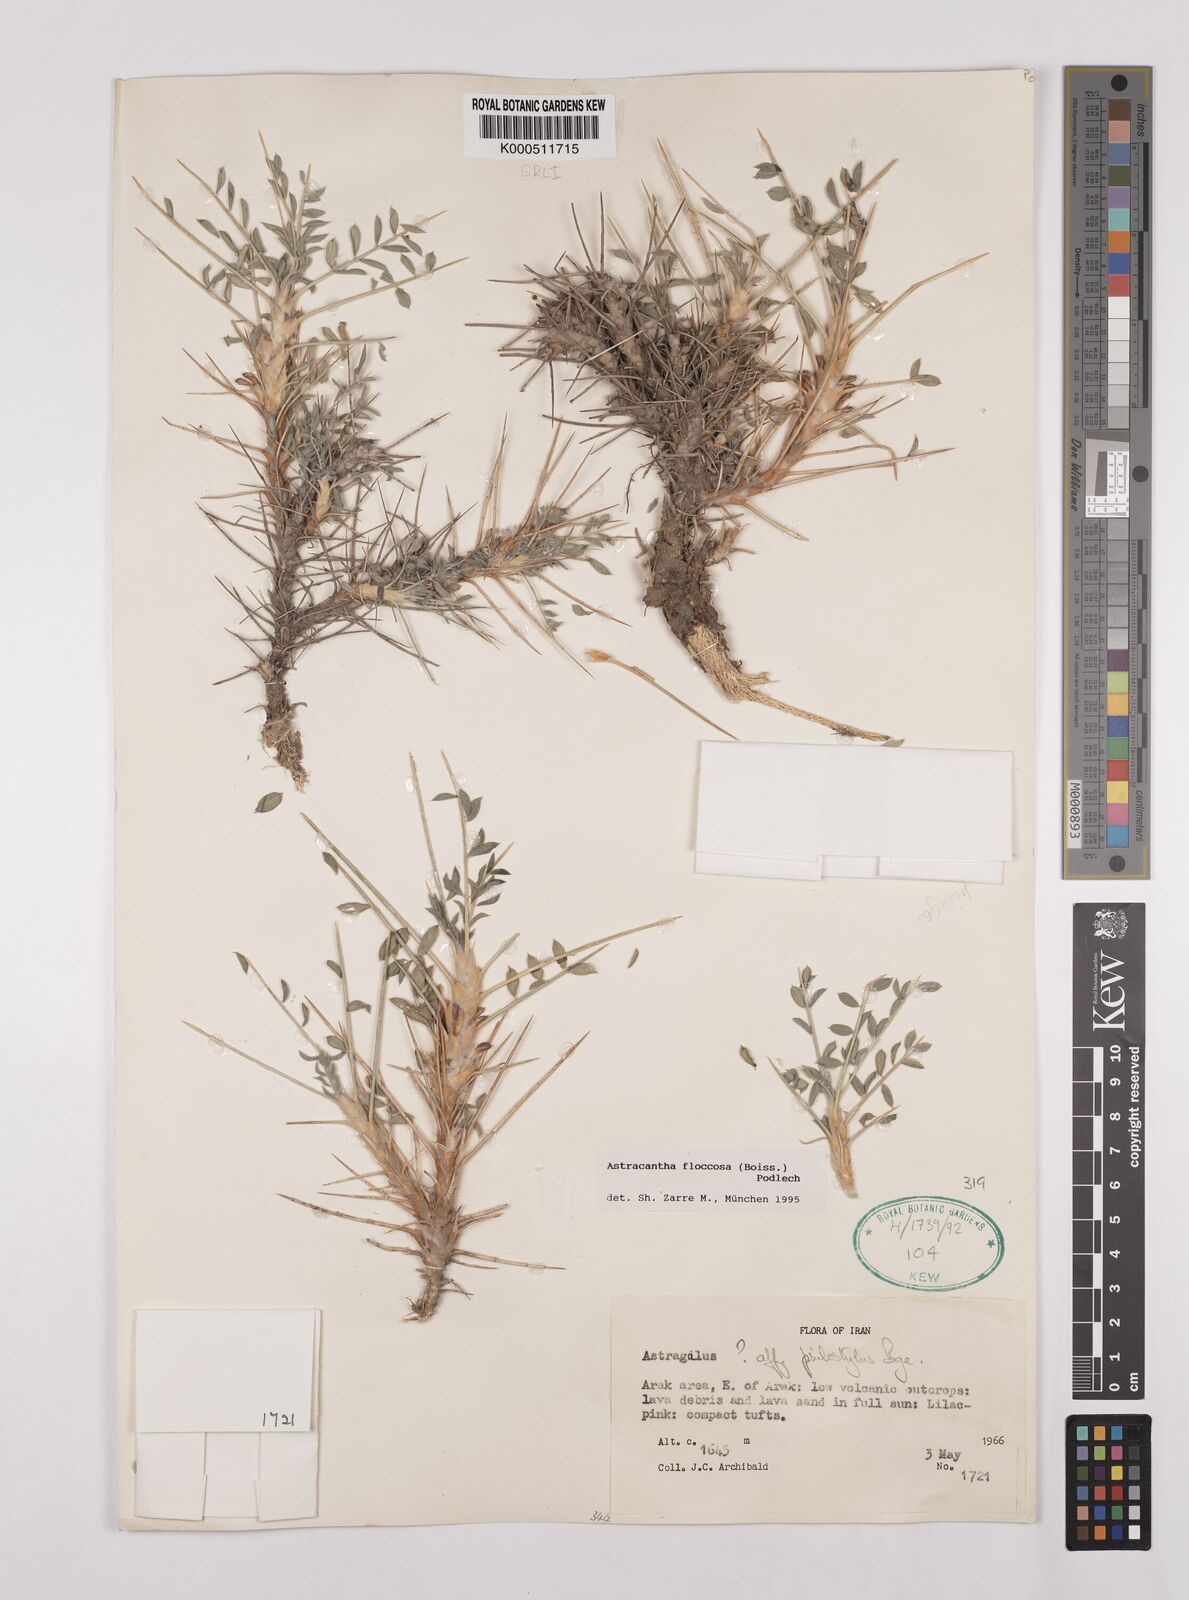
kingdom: Plantae
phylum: Tracheophyta
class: Magnoliopsida
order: Fabales
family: Fabaceae
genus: Astragalus
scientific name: Astragalus floccosus
